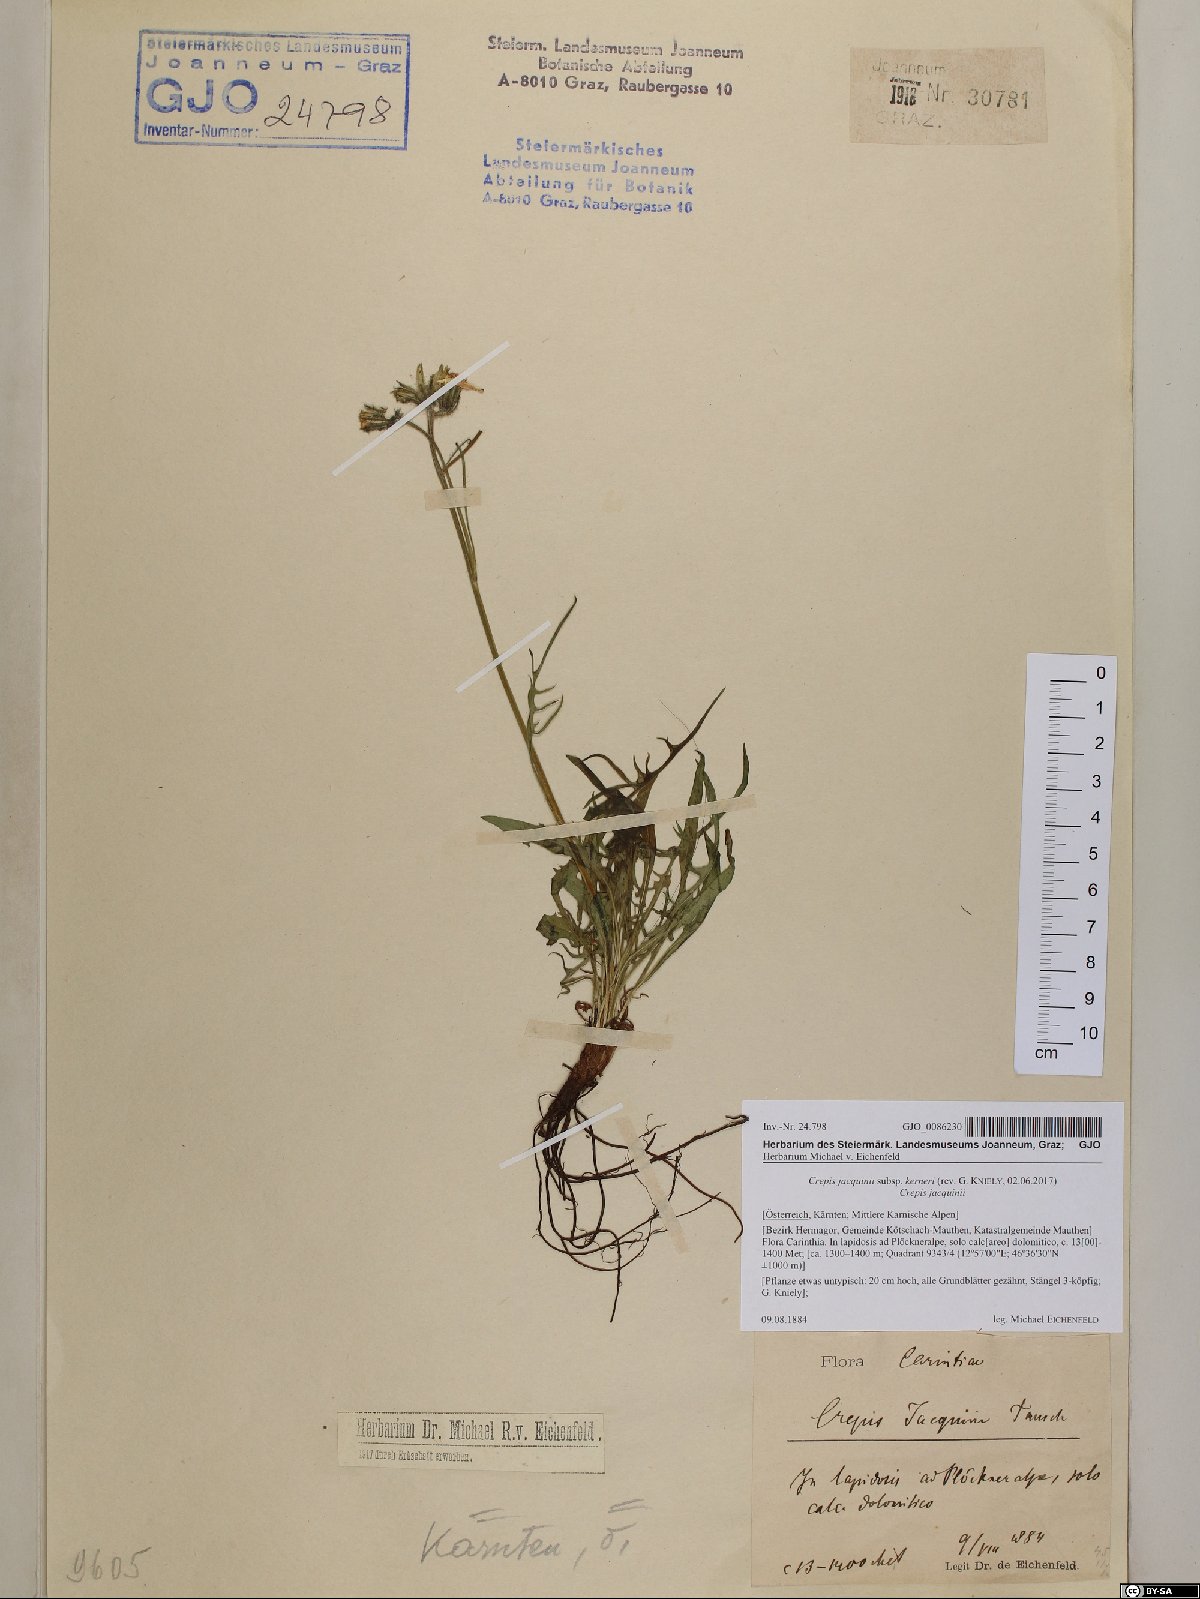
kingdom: Plantae
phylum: Tracheophyta
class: Magnoliopsida
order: Asterales
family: Asteraceae
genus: Crepis
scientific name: Crepis jacquinii
